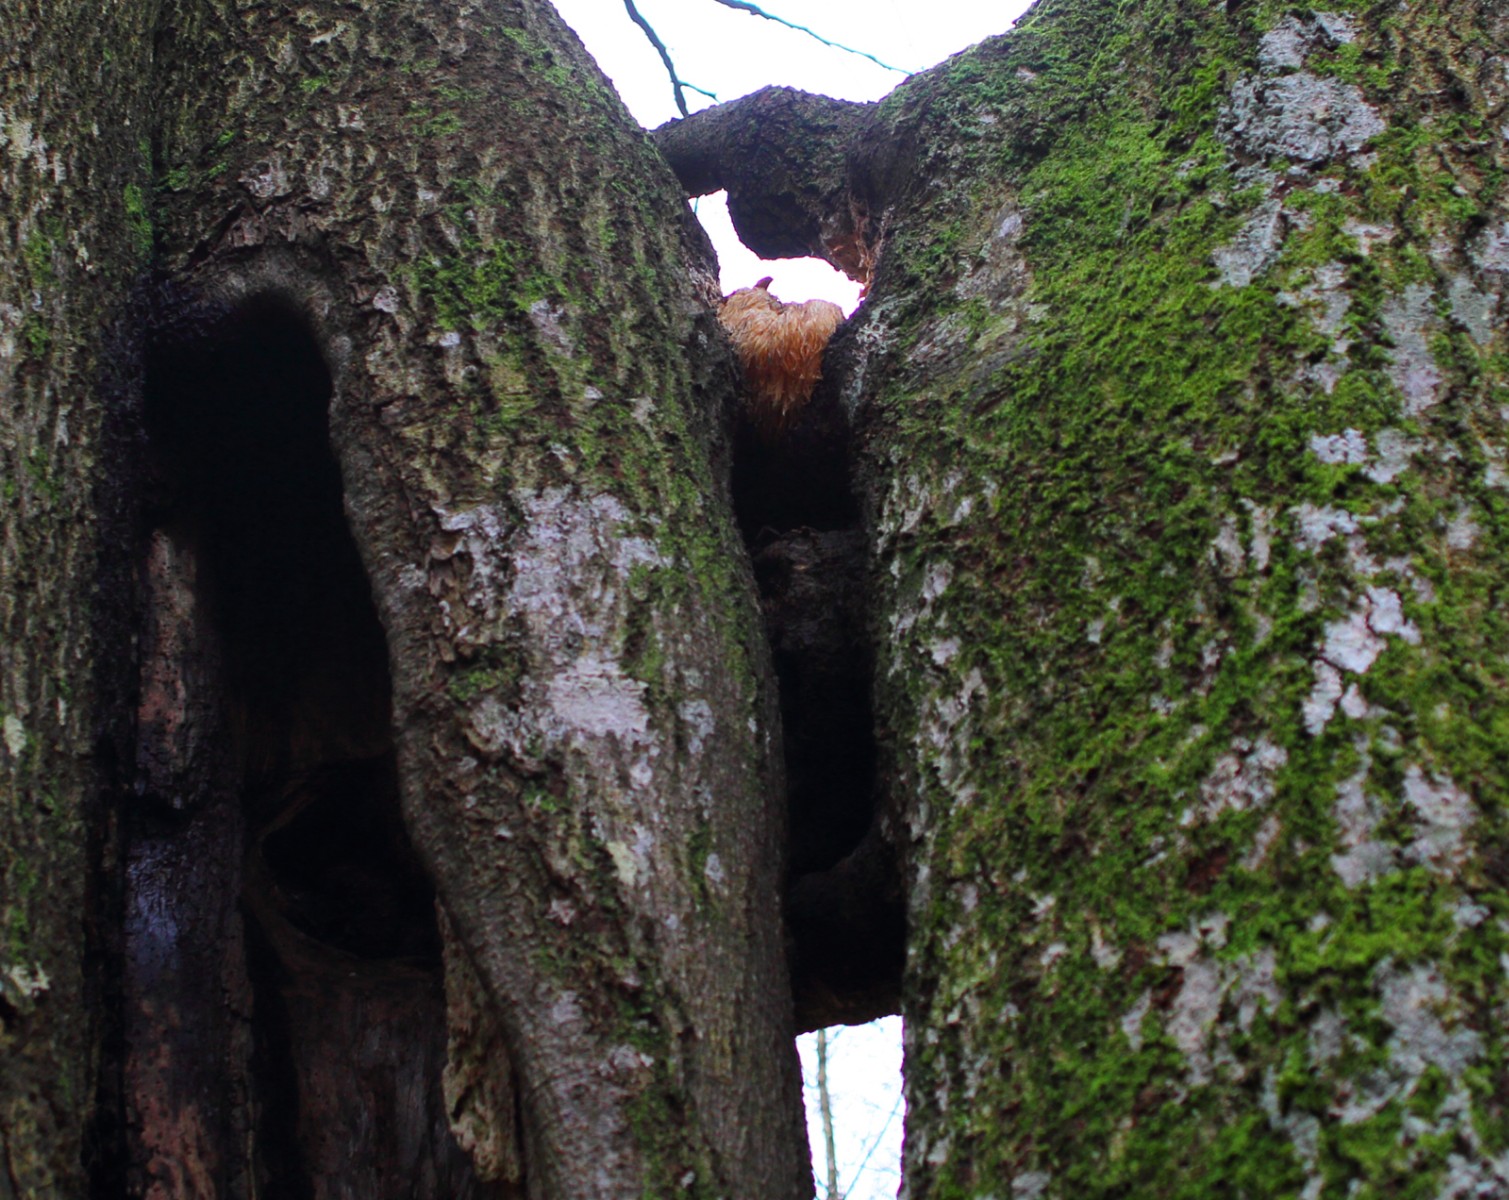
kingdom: Fungi
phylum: Basidiomycota
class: Agaricomycetes
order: Russulales
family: Hericiaceae
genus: Hericium
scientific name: Hericium erinaceus
